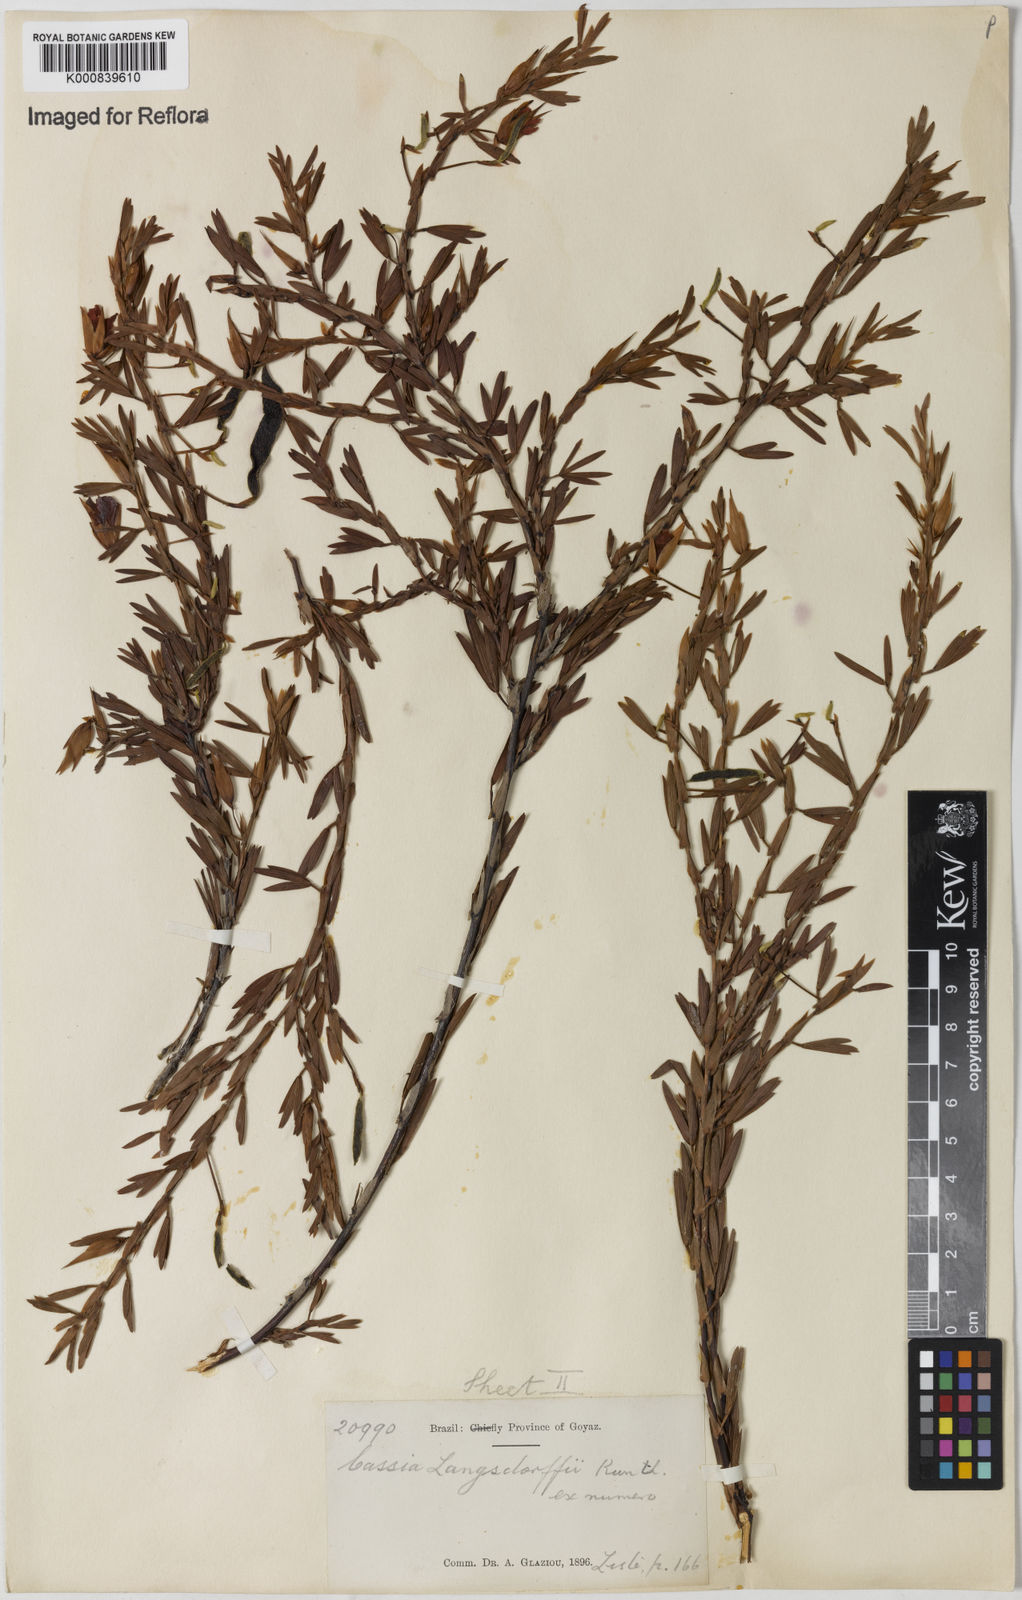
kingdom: Plantae
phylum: Tracheophyta
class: Magnoliopsida
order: Fabales
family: Fabaceae
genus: Chamaecrista
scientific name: Chamaecrista langsdorffii
